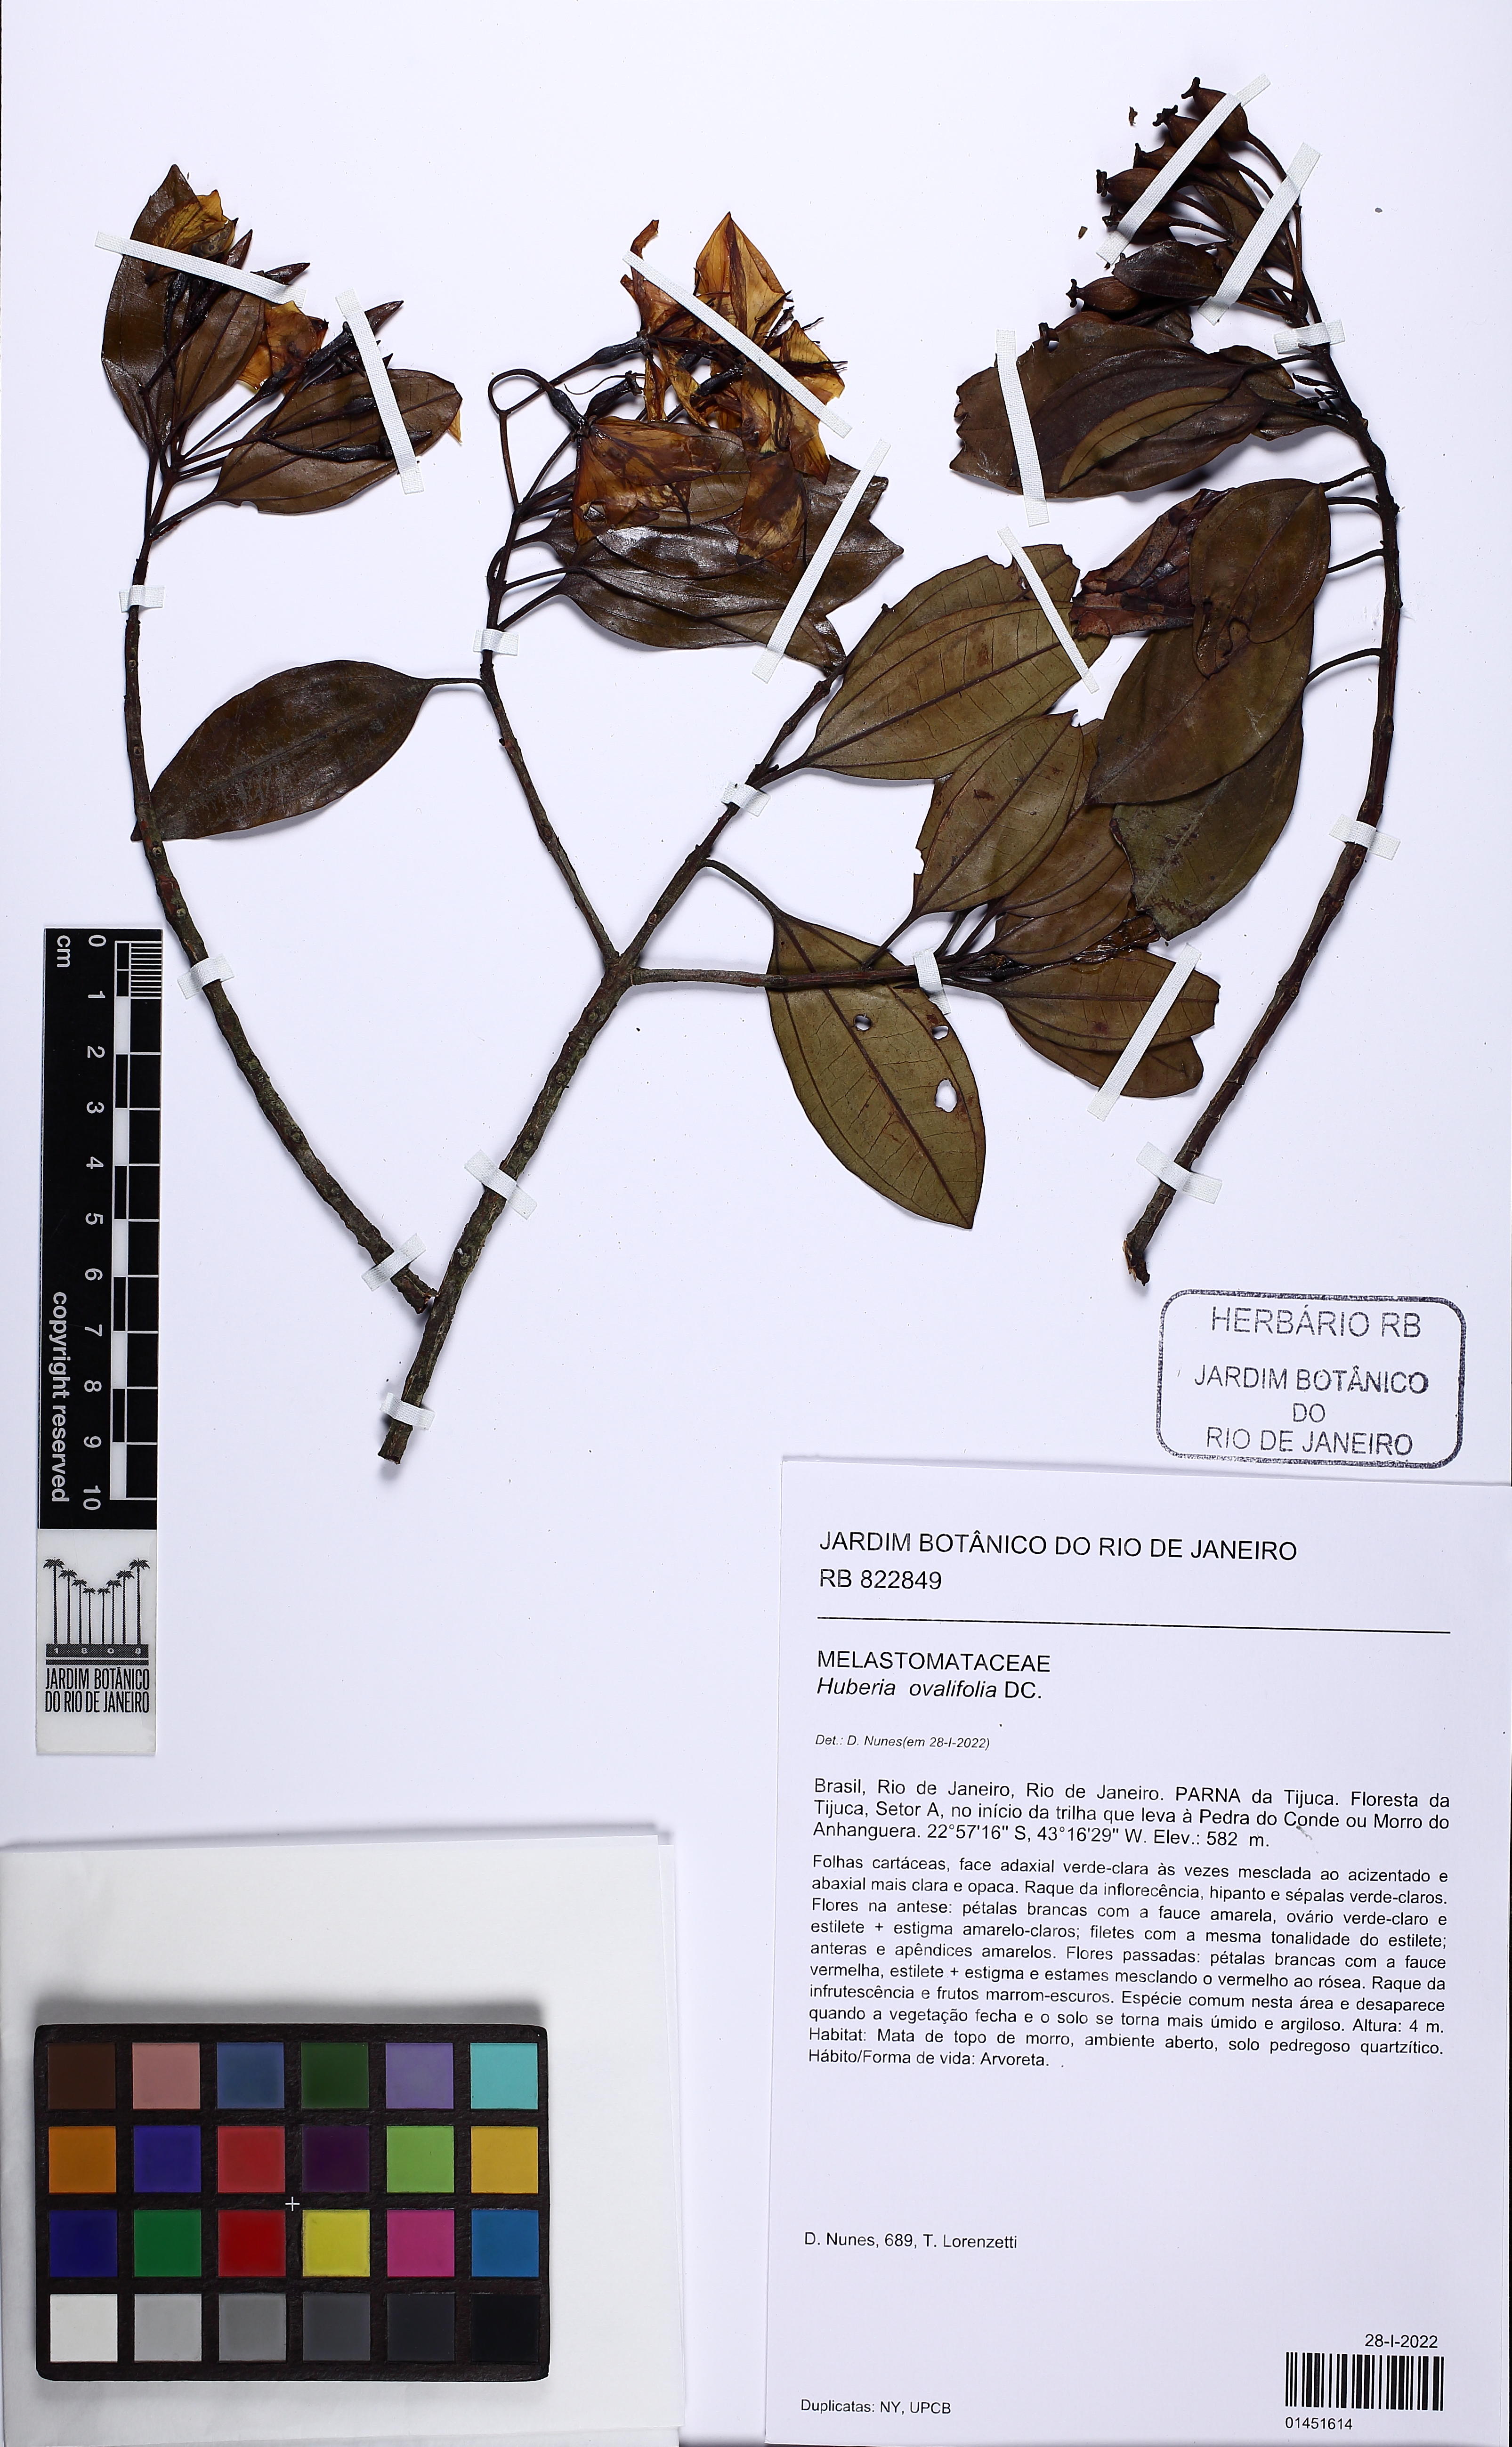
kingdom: Plantae
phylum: Tracheophyta
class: Magnoliopsida
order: Myrtales
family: Melastomataceae
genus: Huberia
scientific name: Huberia ovalifolia
